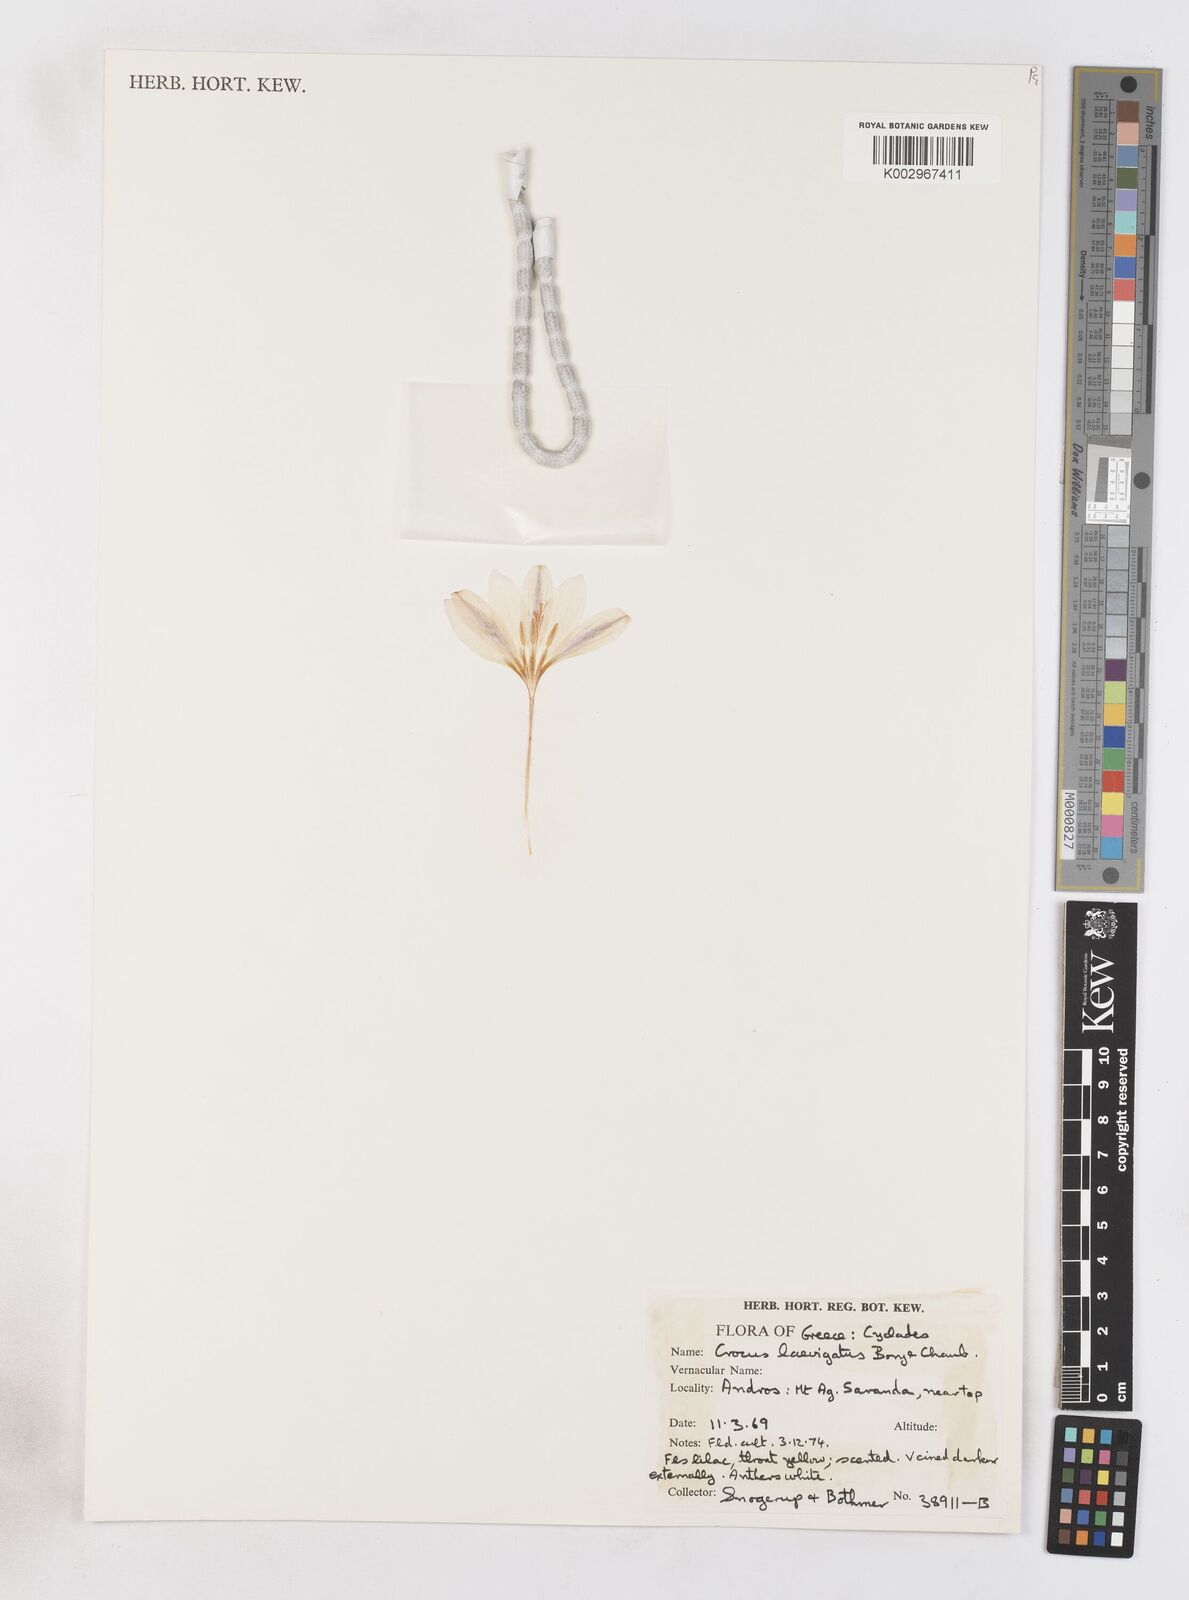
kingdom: Plantae
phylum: Tracheophyta
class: Liliopsida
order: Asparagales
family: Iridaceae
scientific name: Iridaceae
